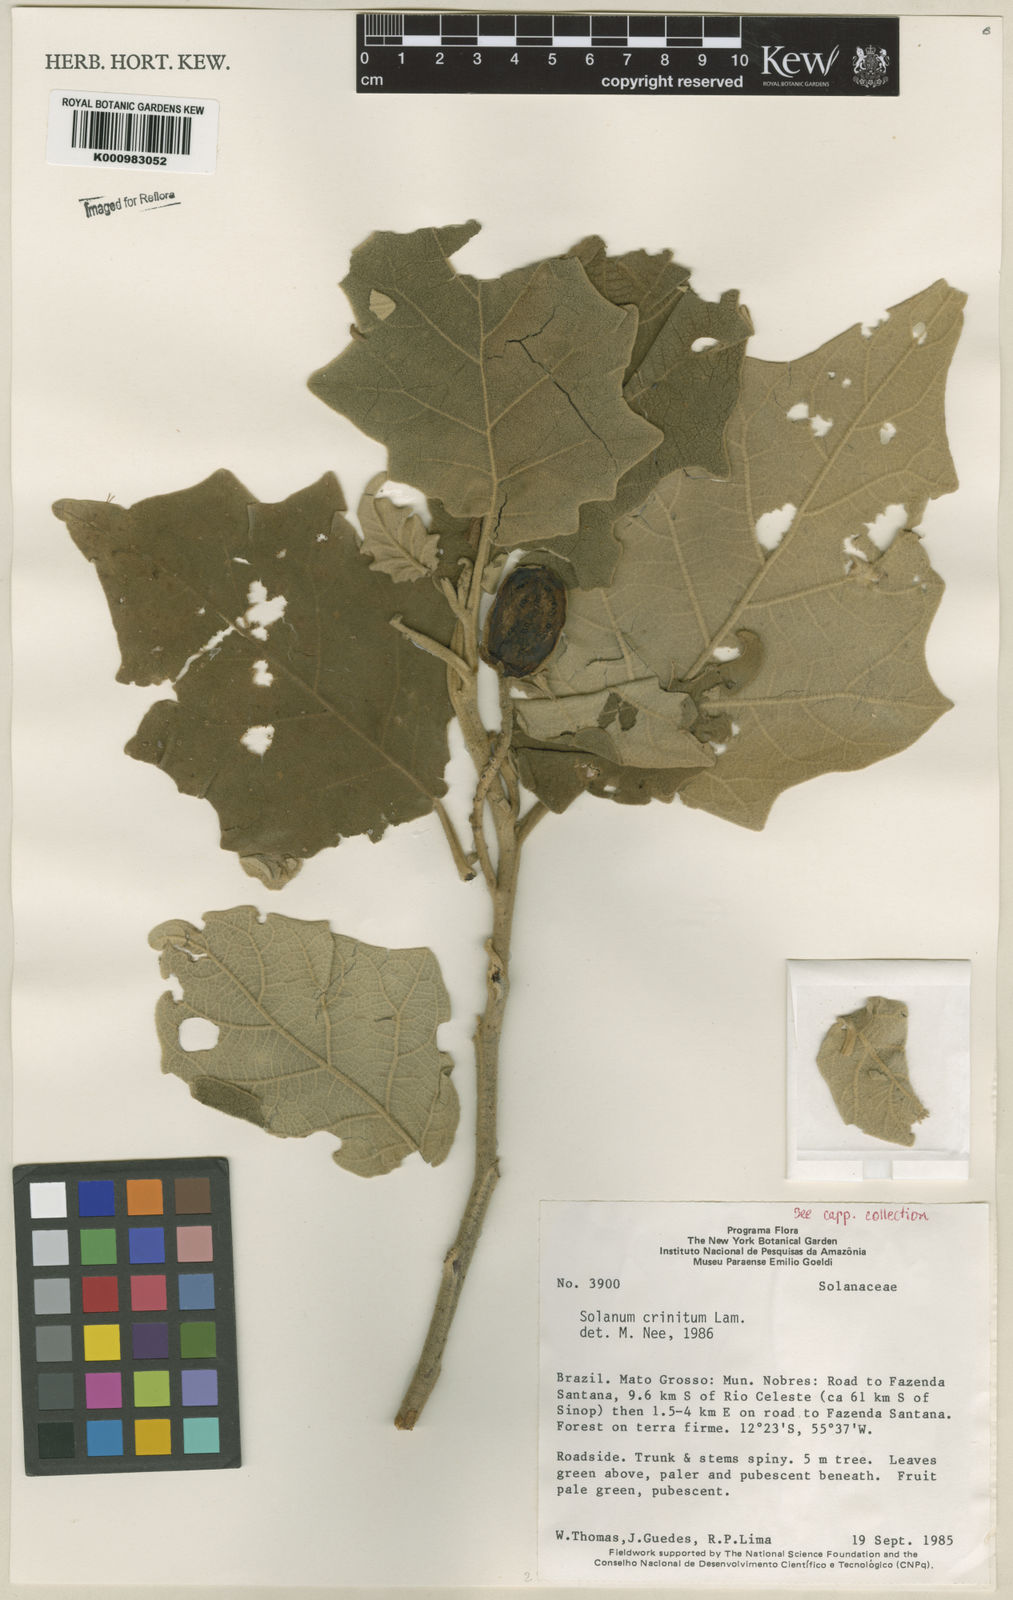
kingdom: Plantae
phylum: Tracheophyta
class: Magnoliopsida
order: Solanales
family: Solanaceae
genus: Solanum
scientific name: Solanum crinitum
